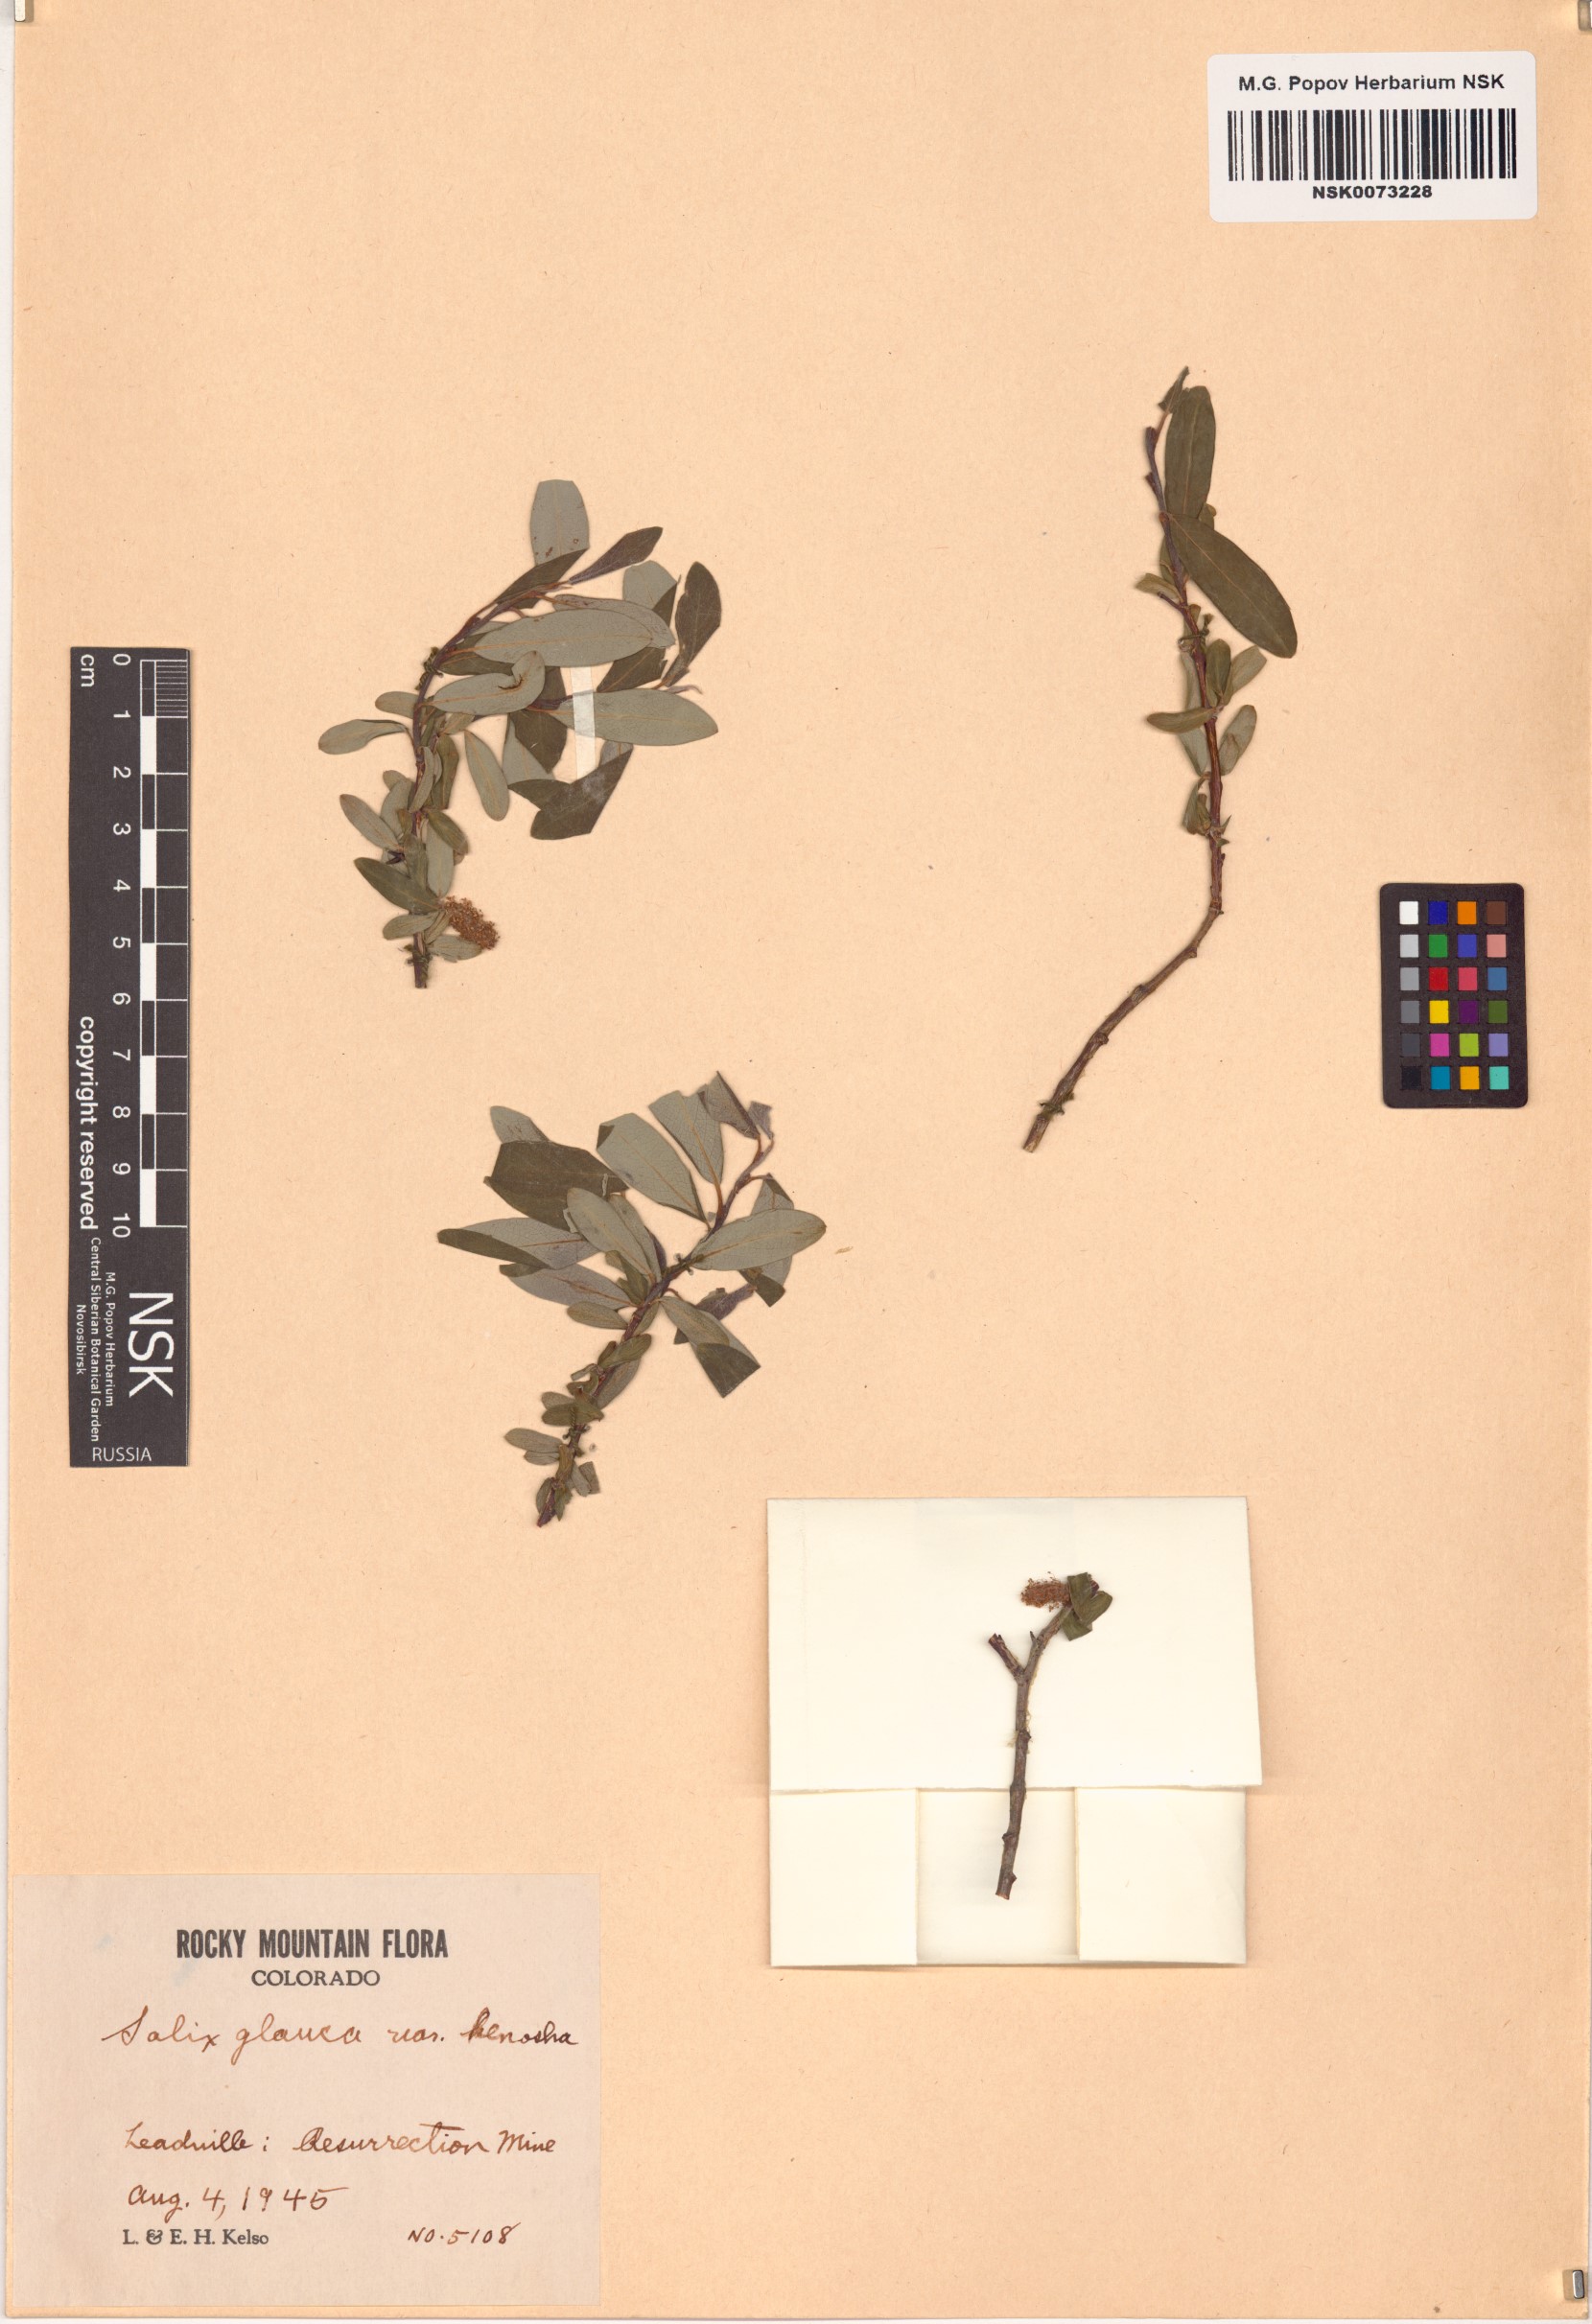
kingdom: Plantae
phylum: Tracheophyta
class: Magnoliopsida
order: Malpighiales
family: Salicaceae
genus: Salix
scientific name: Salix glauca
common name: Glaucous willow
